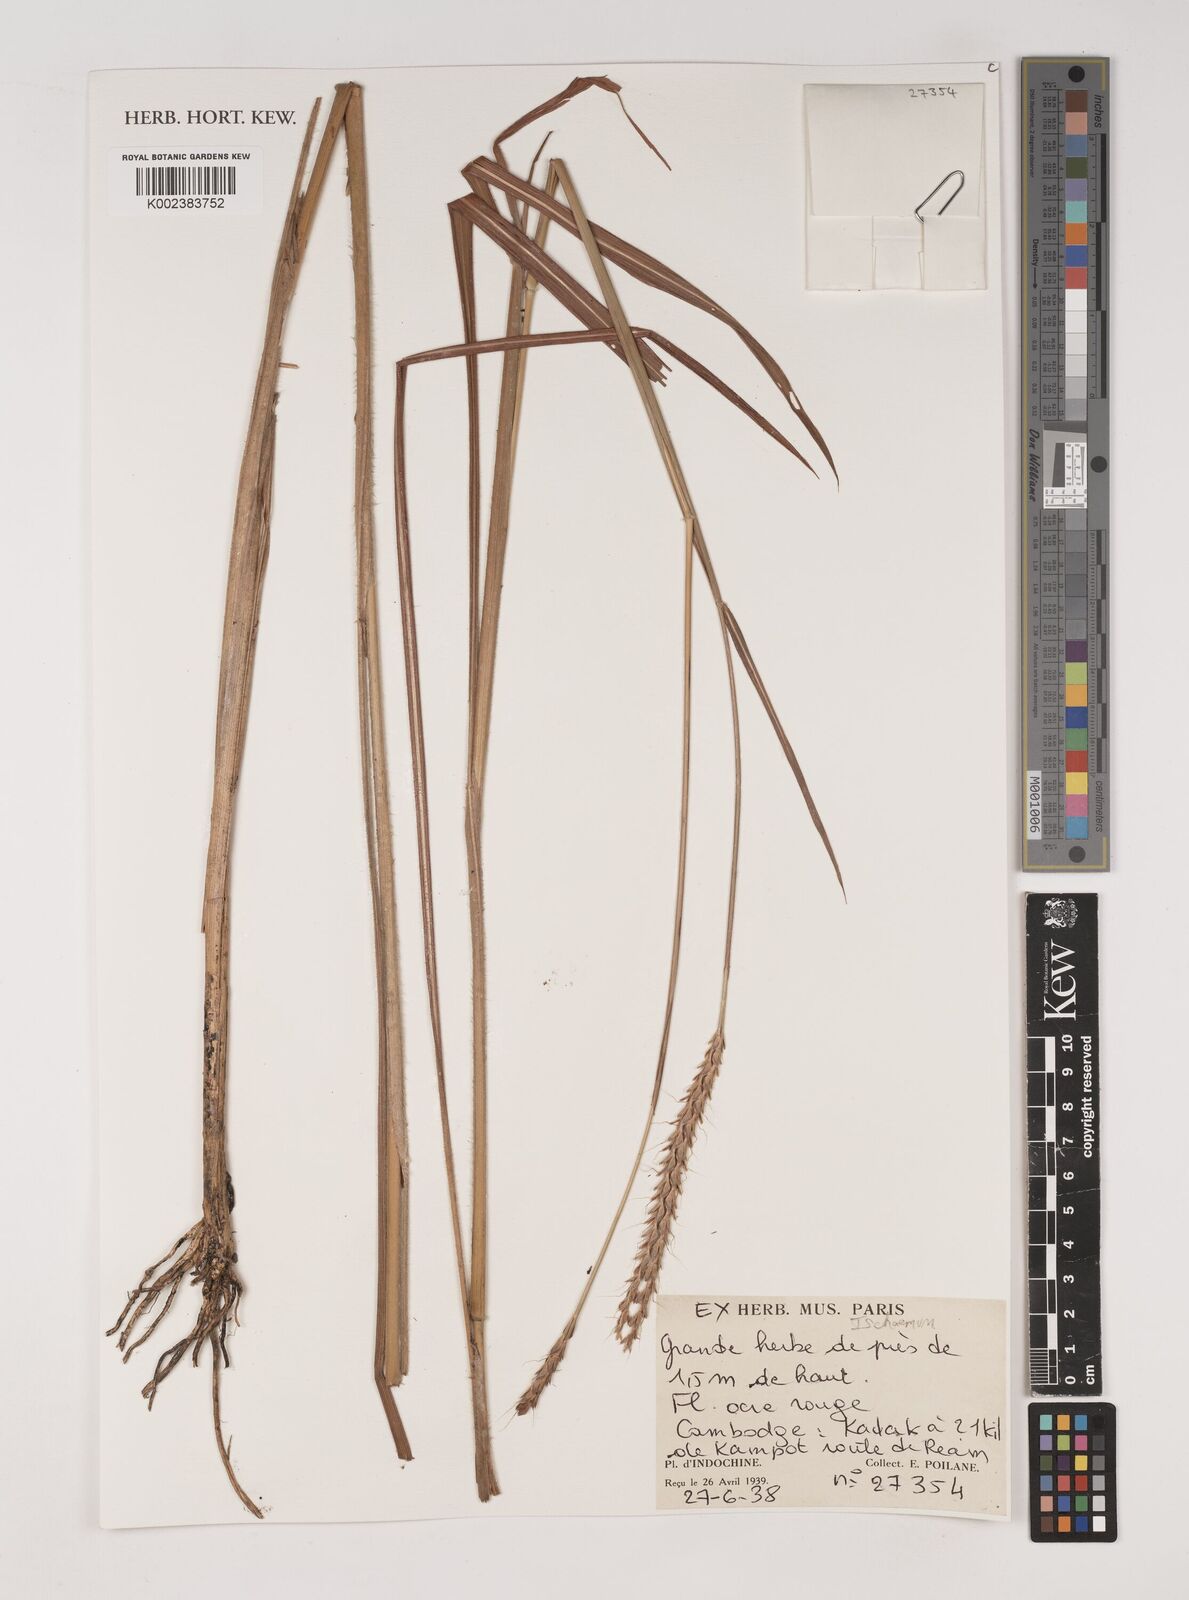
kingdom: Plantae
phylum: Tracheophyta
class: Liliopsida
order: Poales
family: Poaceae
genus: Ischaemum
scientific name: Ischaemum
